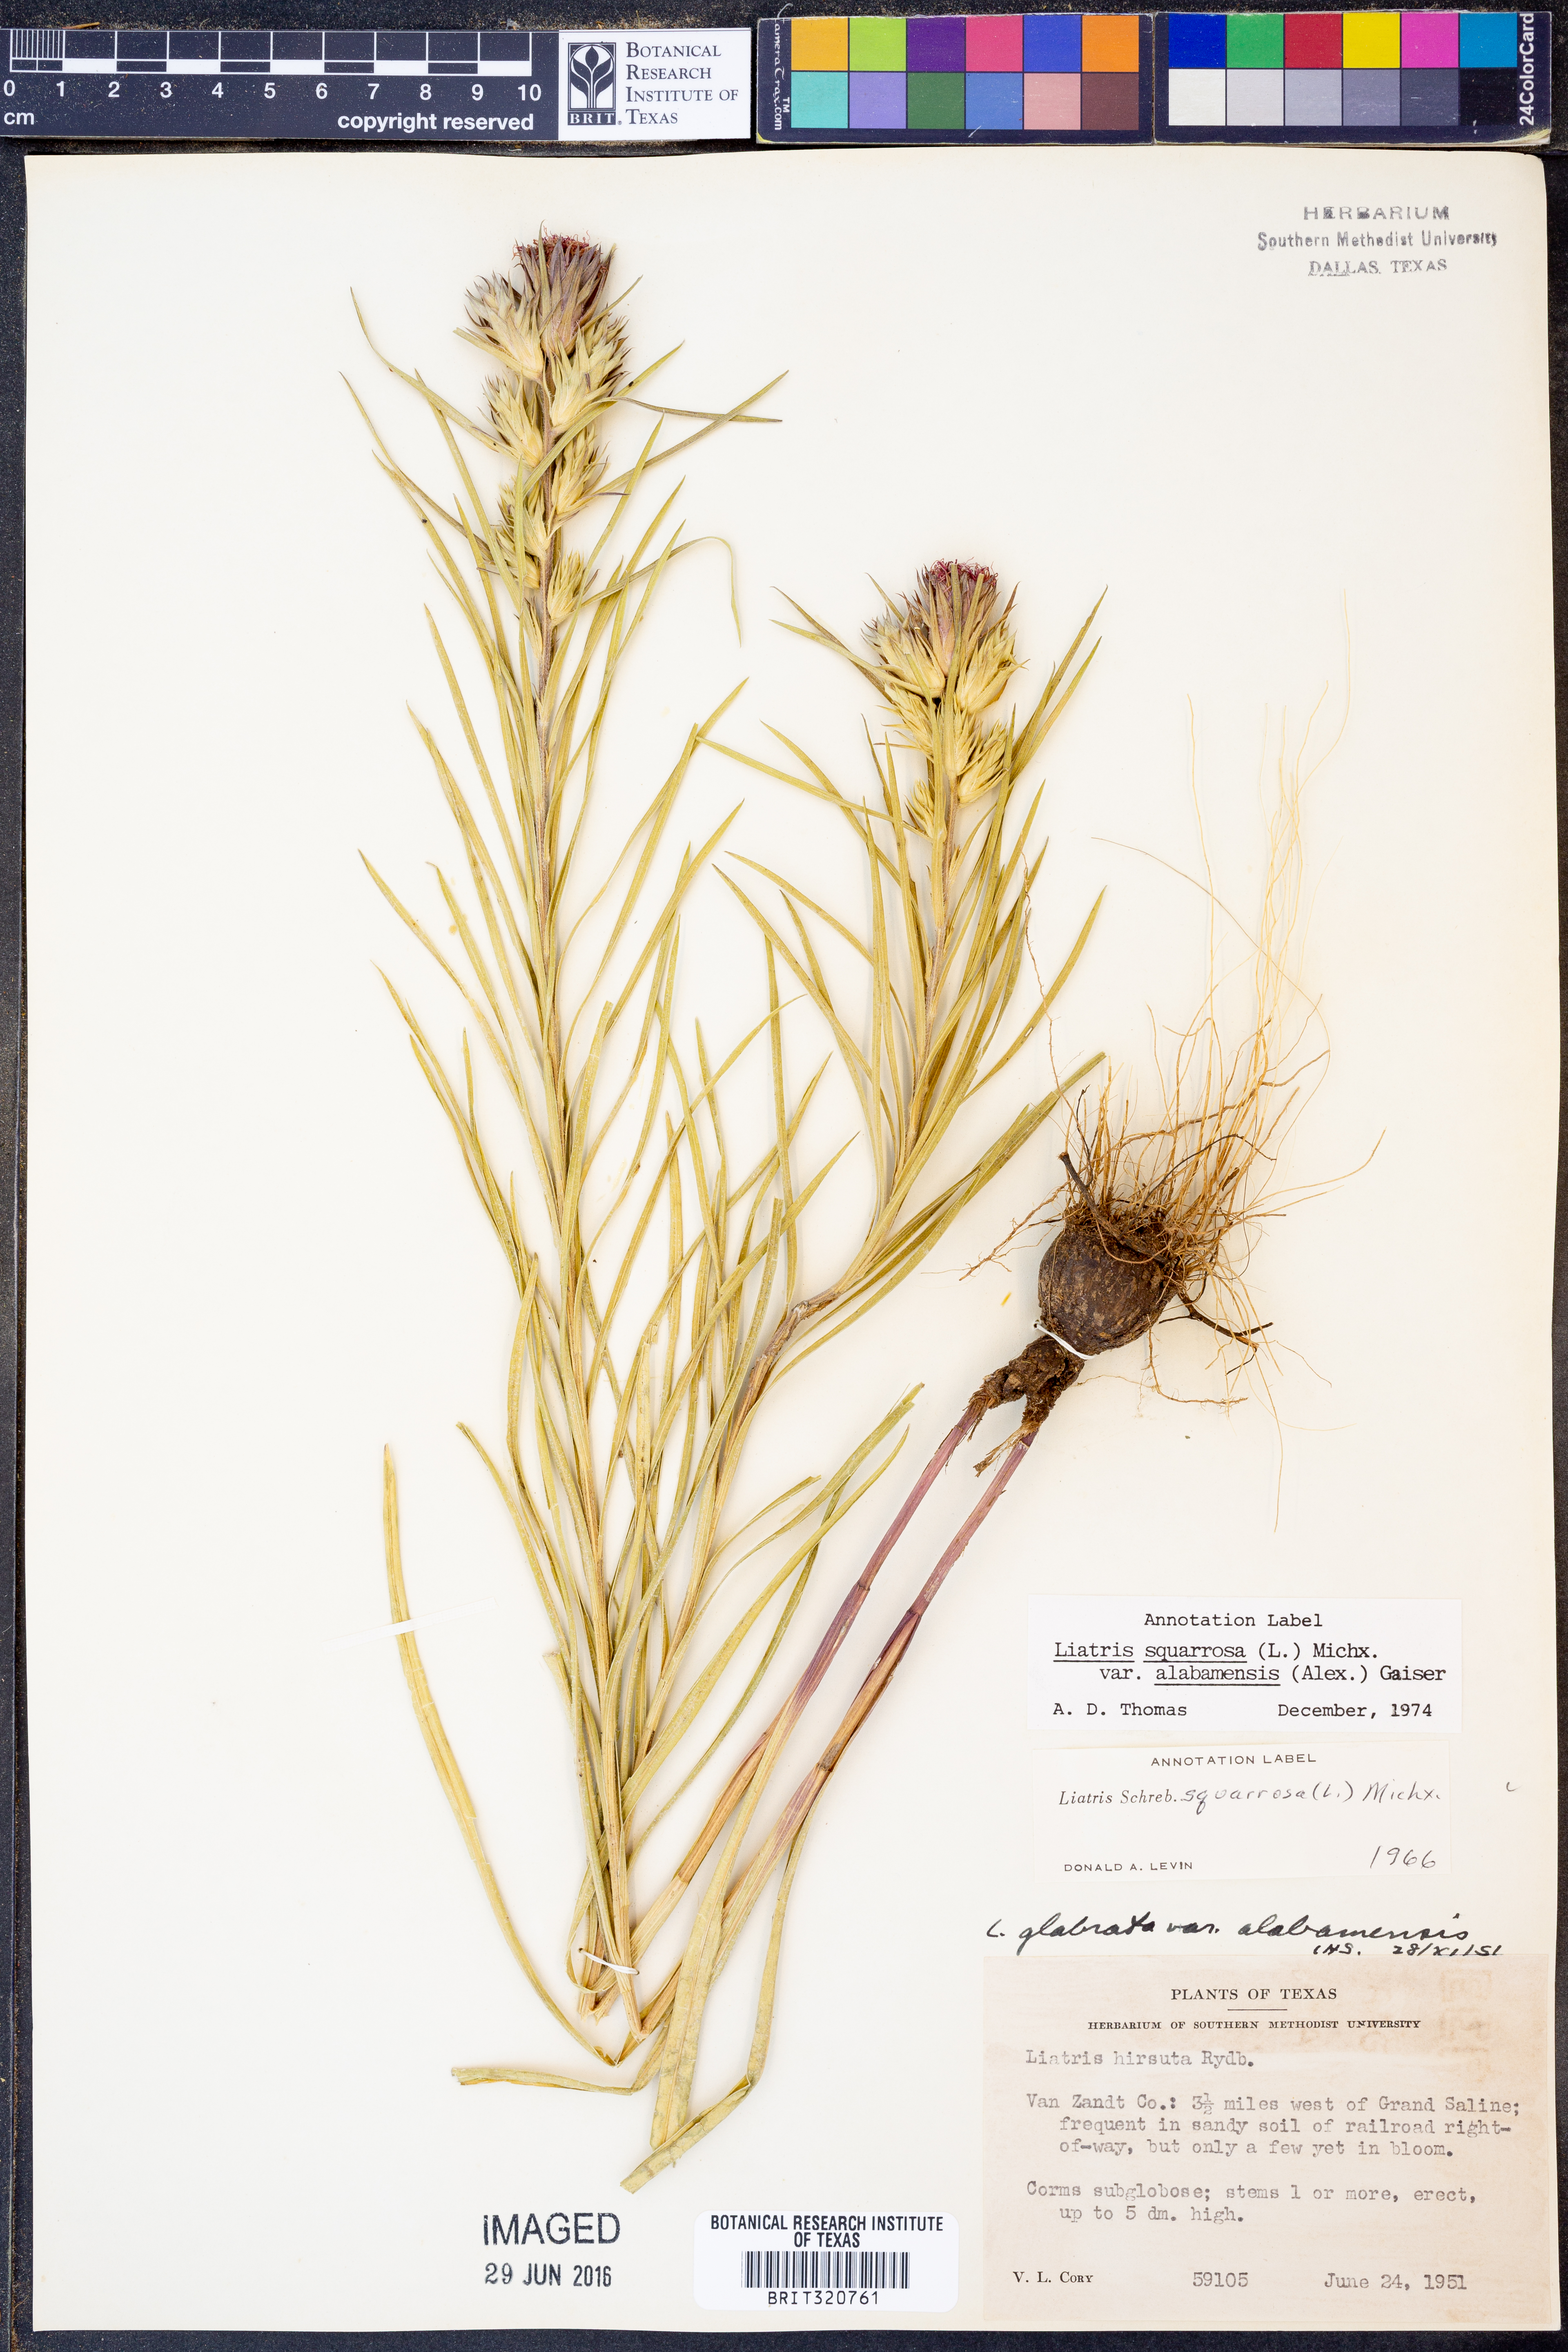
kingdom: Plantae
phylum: Tracheophyta
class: Magnoliopsida
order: Asterales
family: Asteraceae
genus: Liatris
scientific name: Liatris squarrosa
